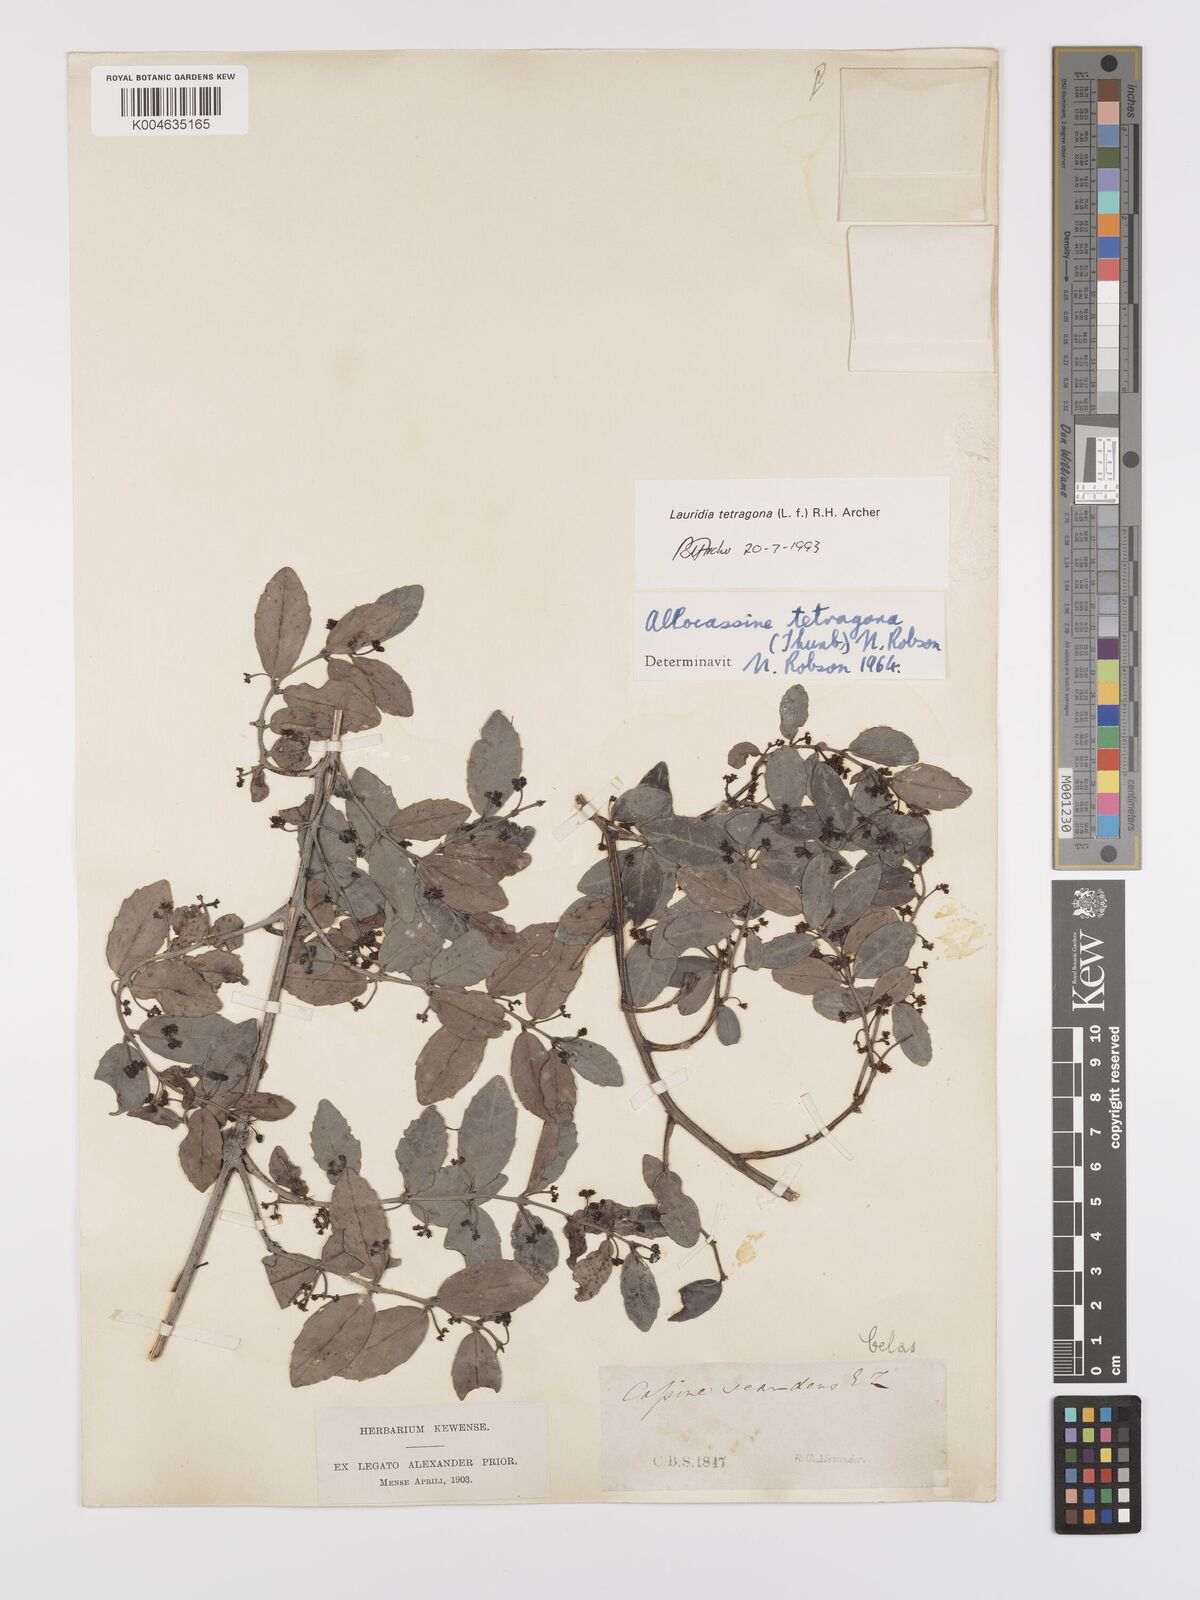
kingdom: Plantae
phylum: Tracheophyta
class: Magnoliopsida
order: Celastrales
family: Celastraceae
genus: Lauridia
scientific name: Lauridia tetragona
